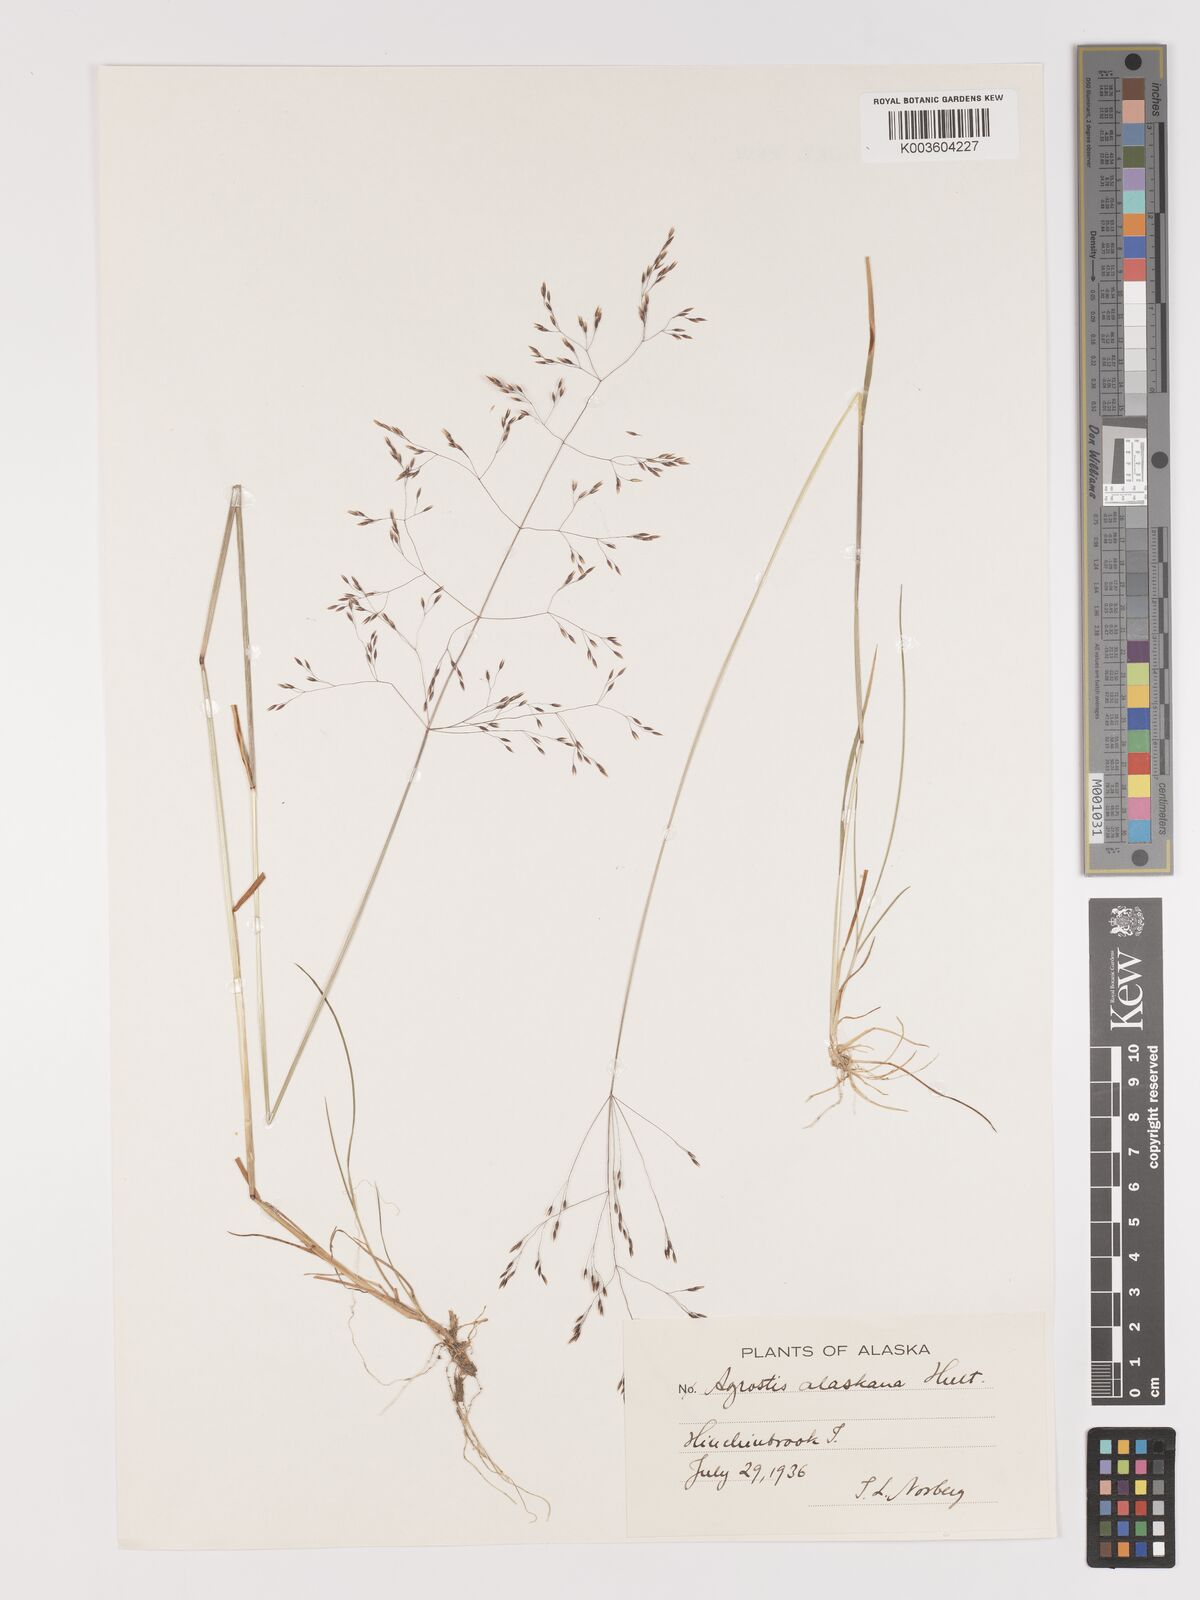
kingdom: Plantae
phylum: Tracheophyta
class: Liliopsida
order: Poales
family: Poaceae
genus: Agrostis
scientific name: Agrostis exarata
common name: Spike bent
